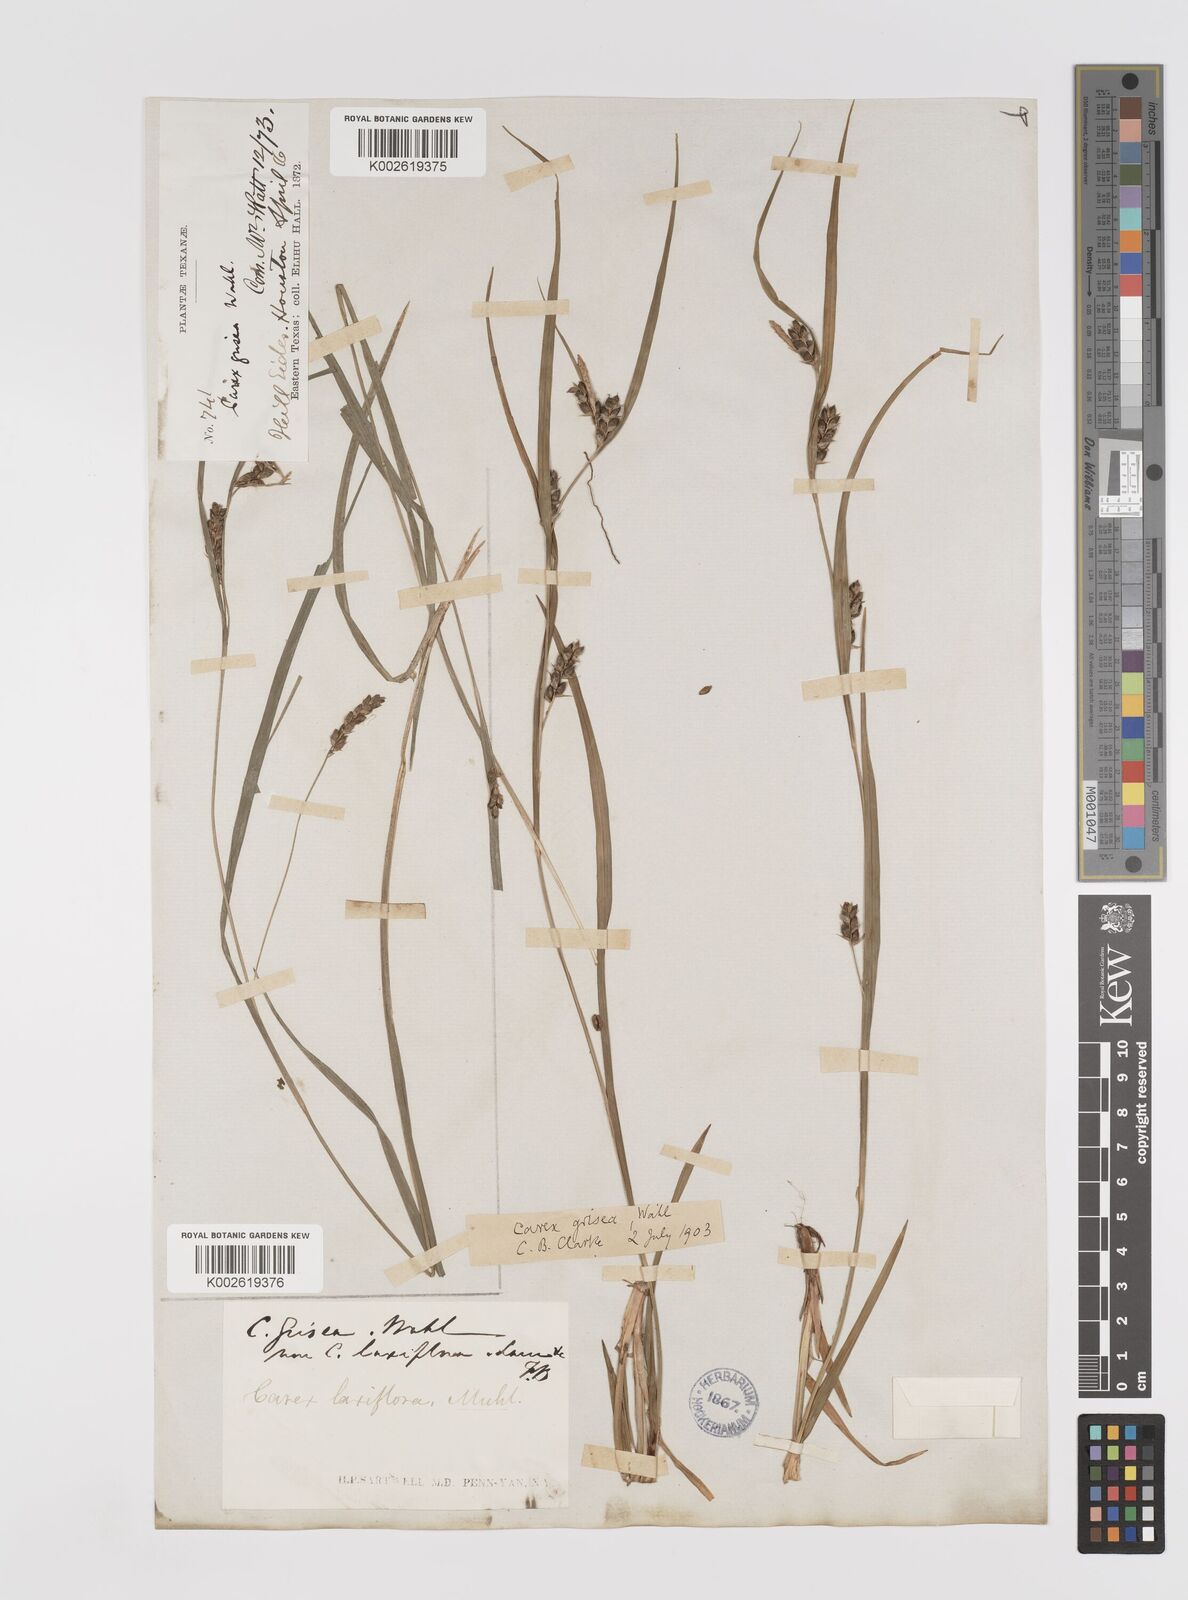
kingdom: Plantae
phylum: Tracheophyta
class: Liliopsida
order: Poales
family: Cyperaceae
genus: Carex
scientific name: Carex grisea
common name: Eastern narrow-leaved sedge
